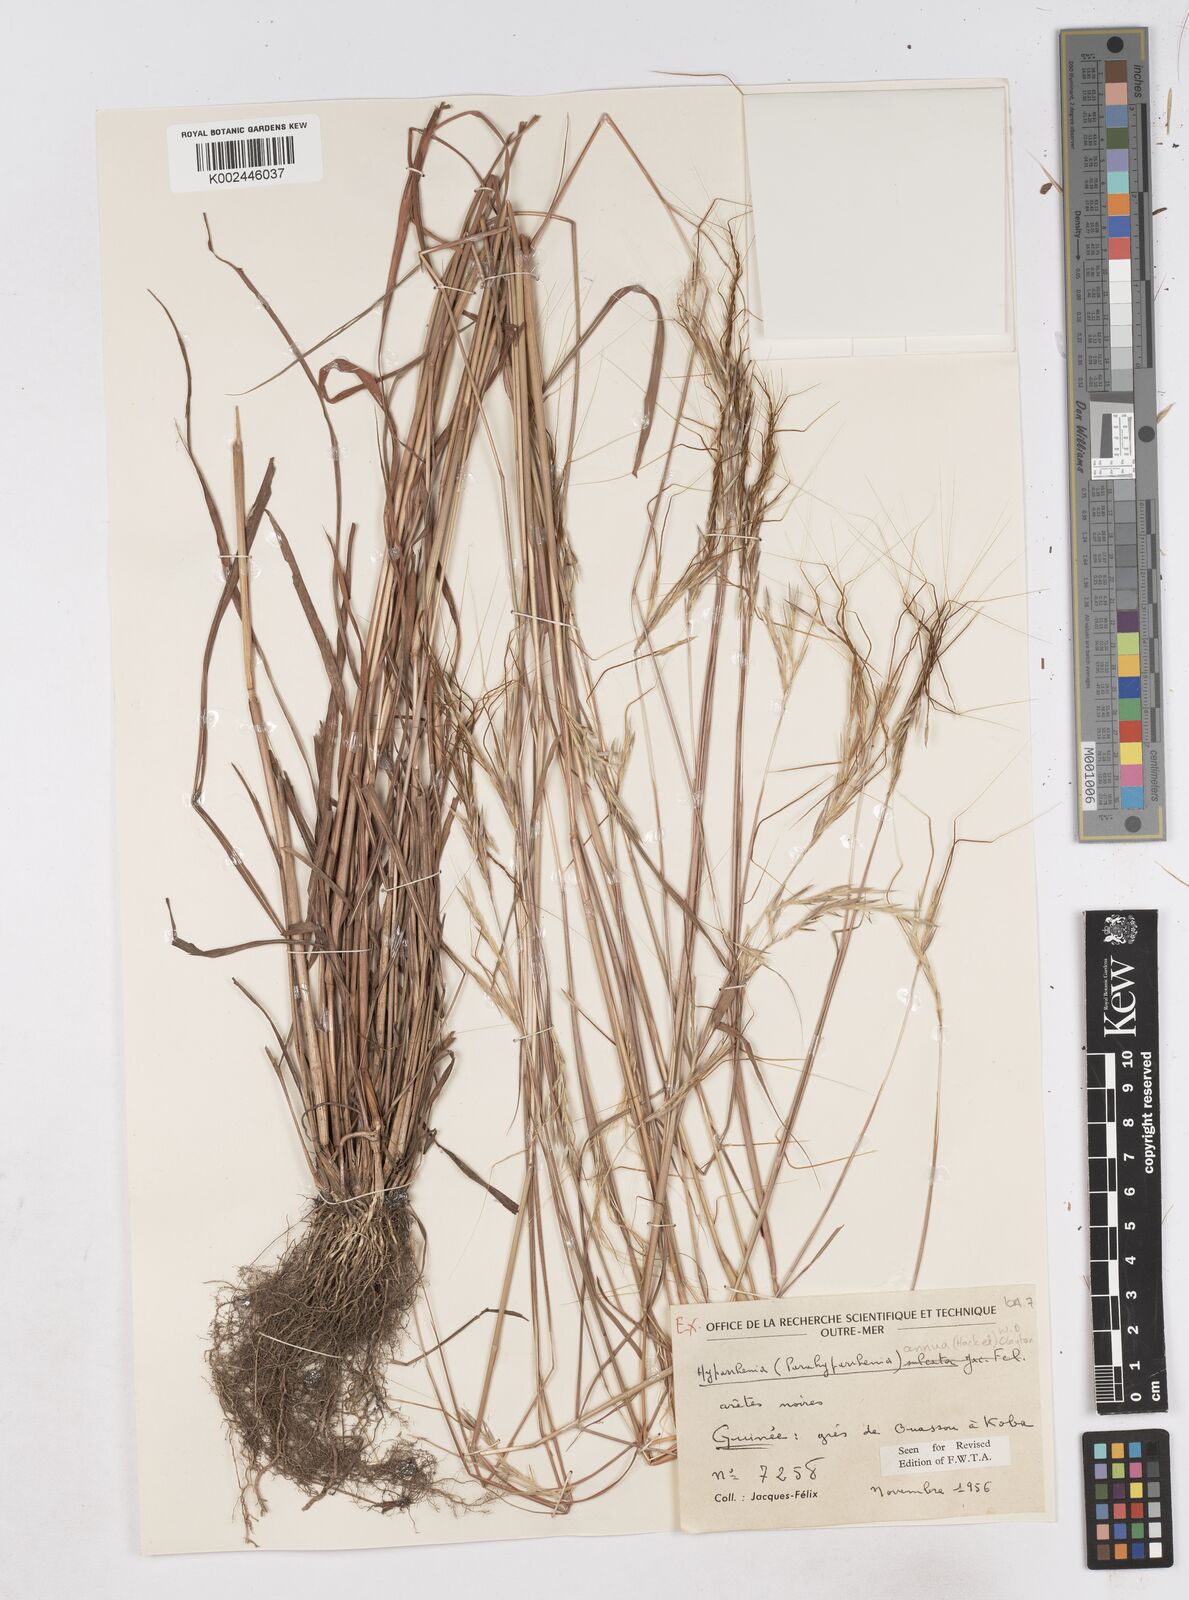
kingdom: Plantae
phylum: Tracheophyta
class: Liliopsida
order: Poales
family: Poaceae
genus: Parahyparrhenia
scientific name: Parahyparrhenia annua
